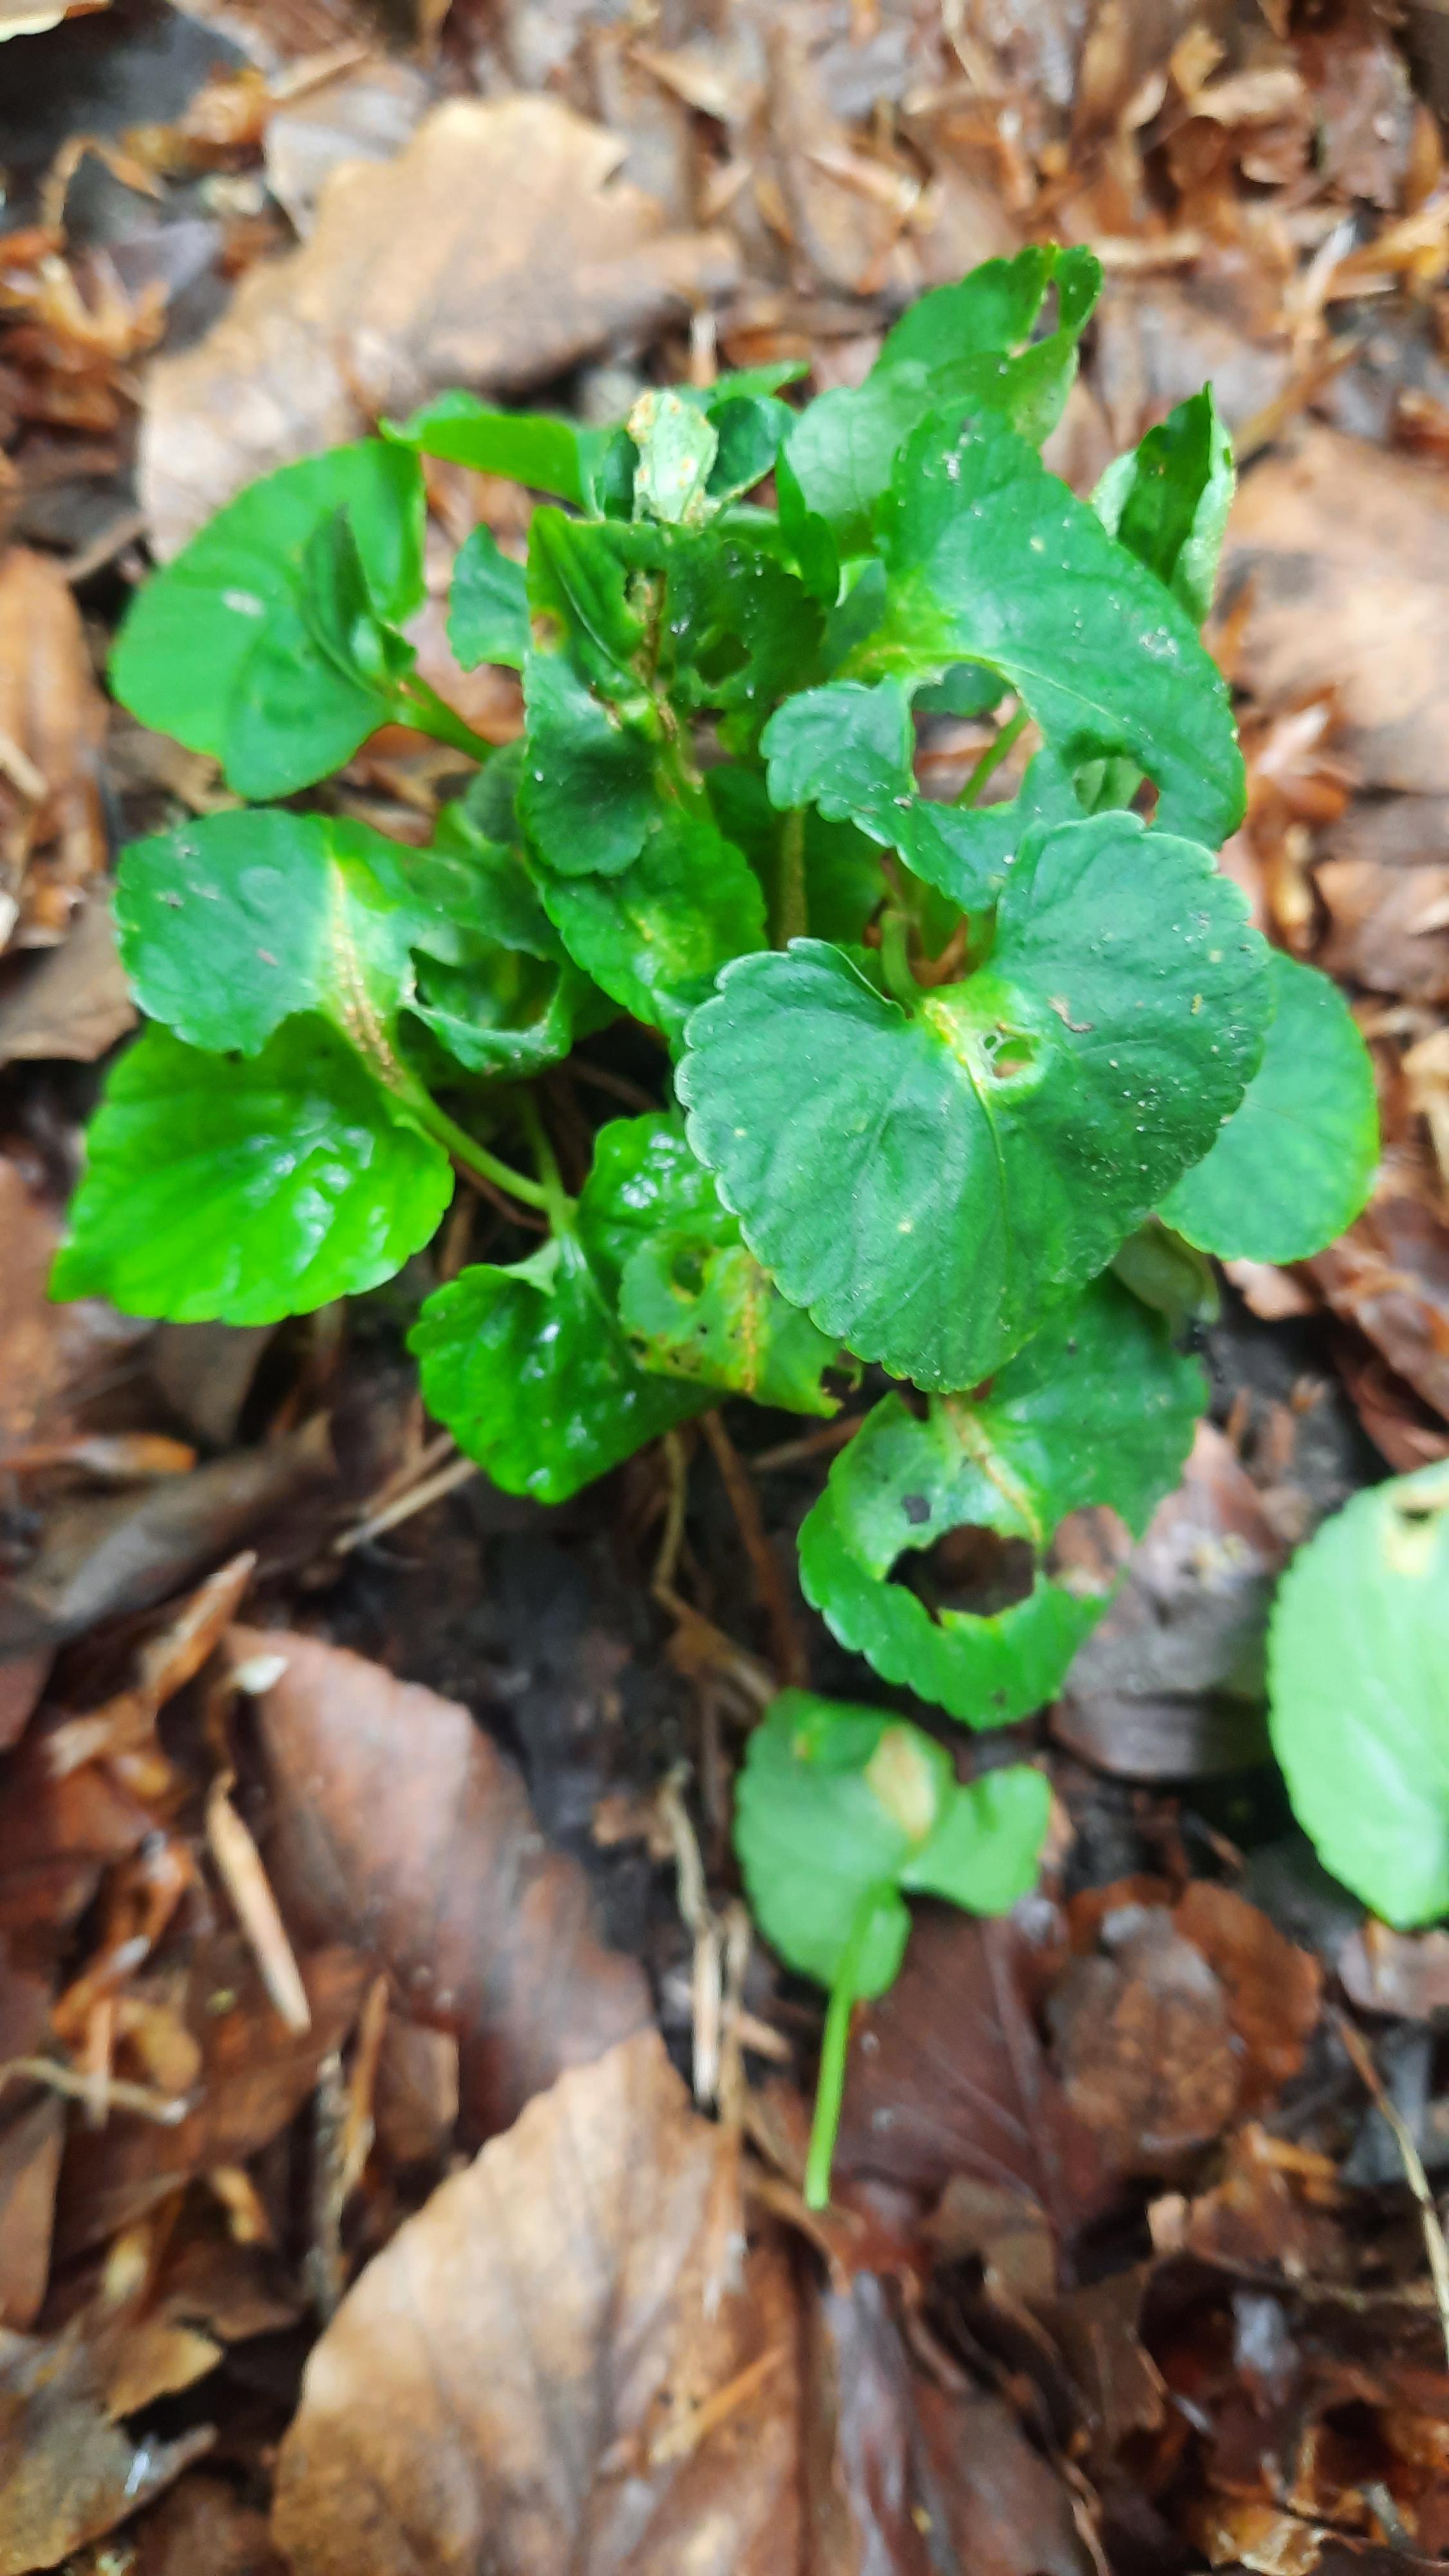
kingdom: Fungi
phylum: Basidiomycota
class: Pucciniomycetes
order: Pucciniales
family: Pucciniaceae
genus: Puccinia
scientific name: Puccinia violae
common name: viol-tvecellerust
